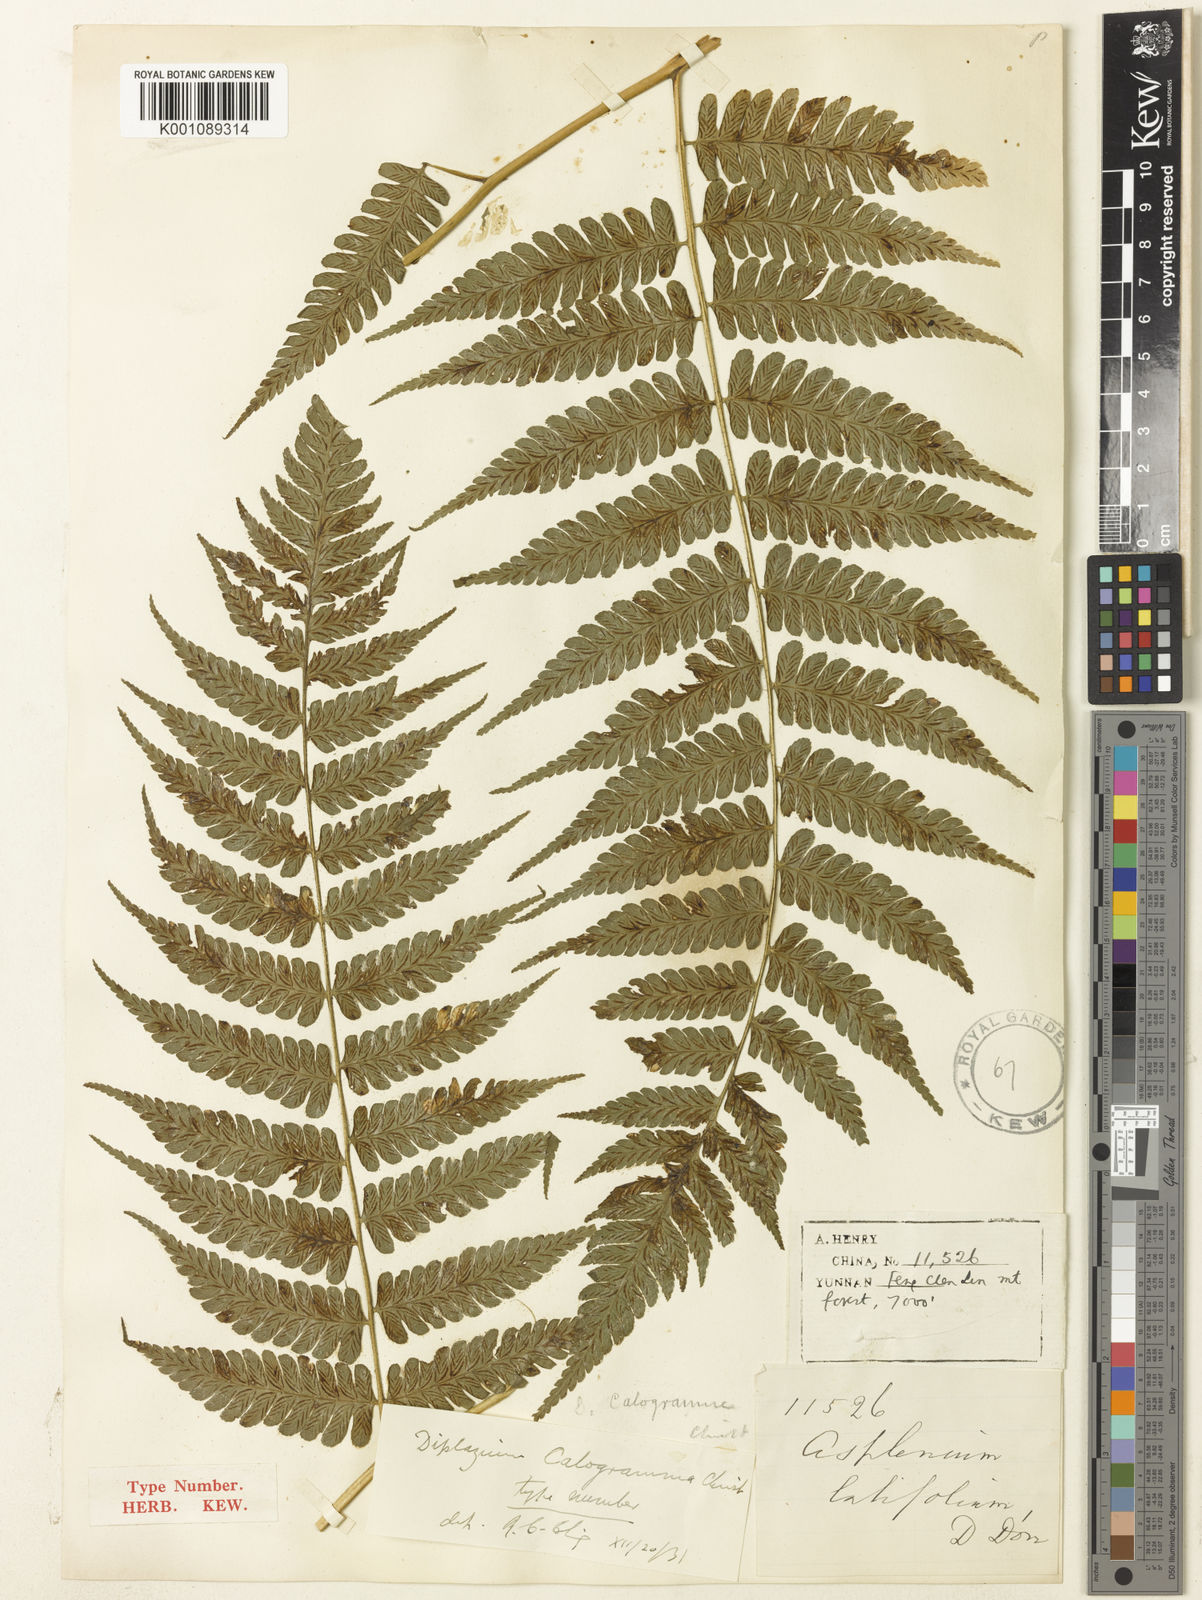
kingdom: Plantae
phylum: Tracheophyta
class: Polypodiopsida
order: Polypodiales
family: Athyriaceae
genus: Diplazium
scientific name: Diplazium latifolium
